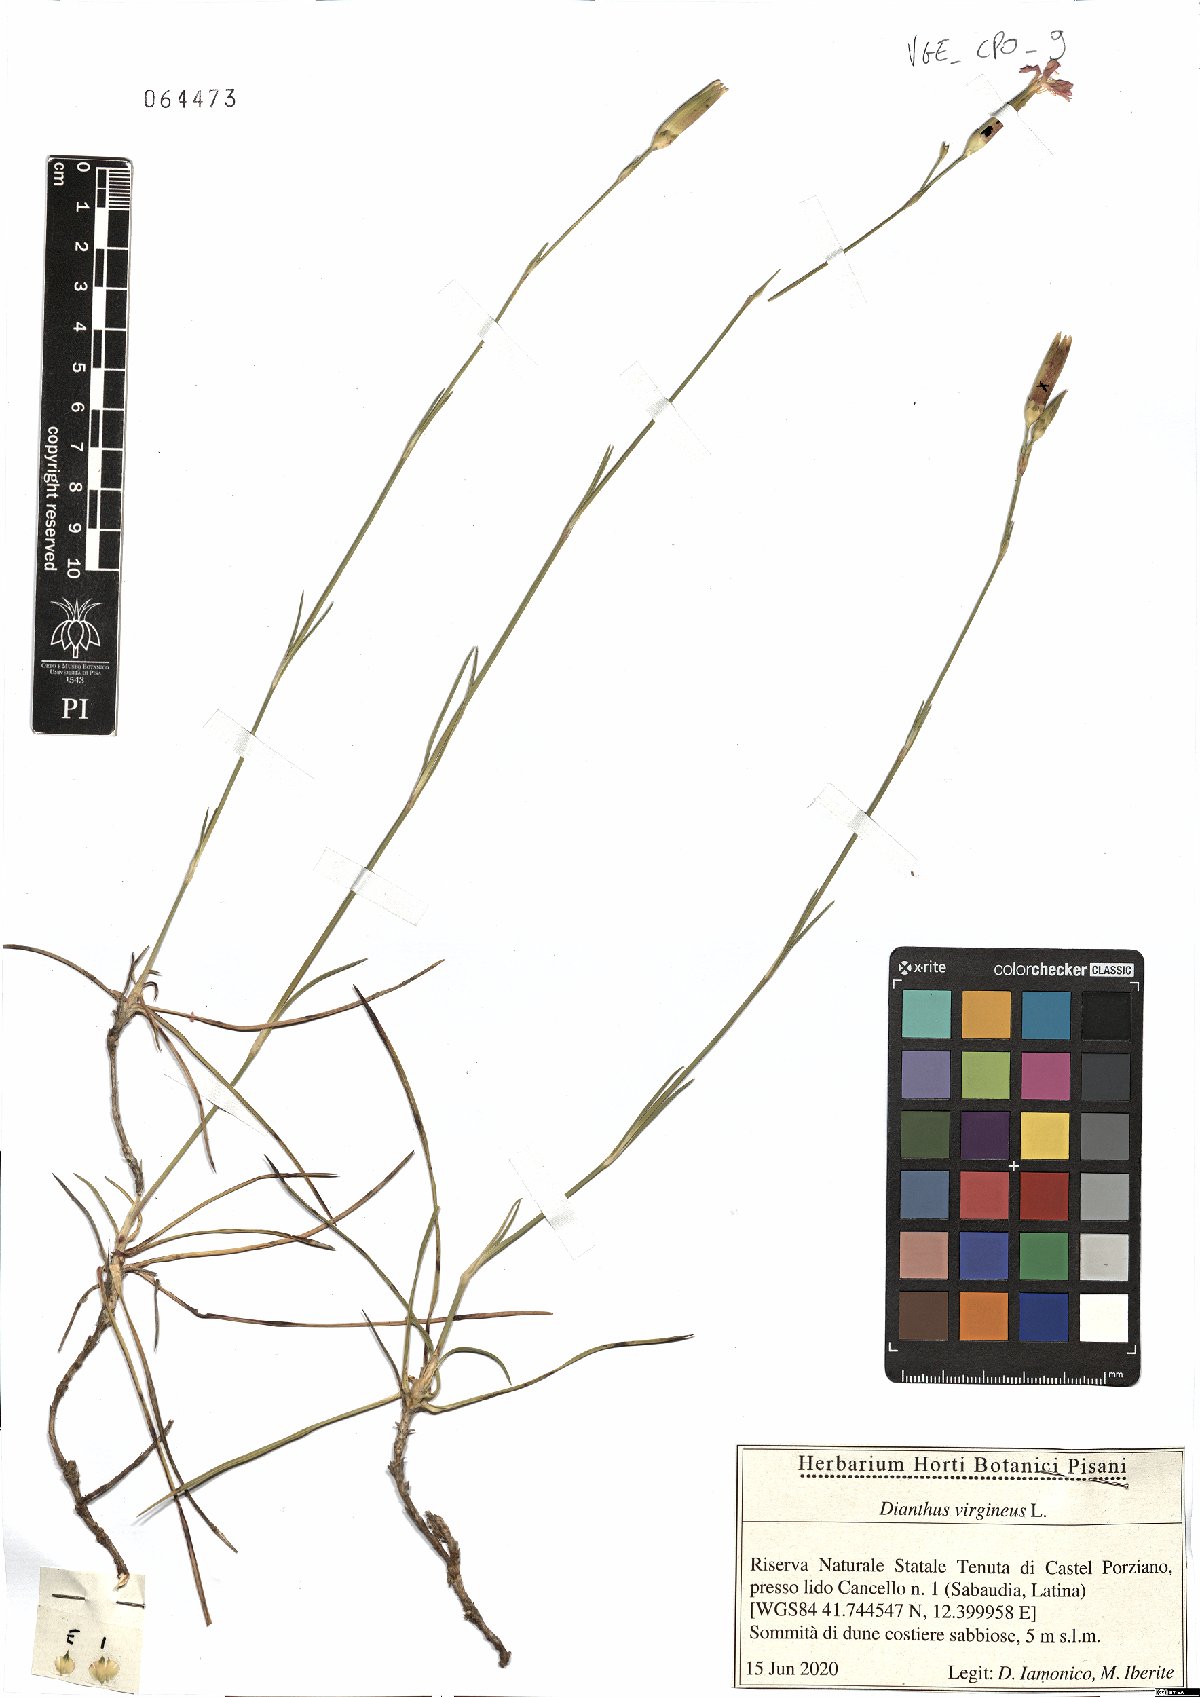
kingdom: Plantae
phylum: Tracheophyta
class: Magnoliopsida
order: Caryophyllales
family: Caryophyllaceae
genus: Dianthus
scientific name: Dianthus virgineus
